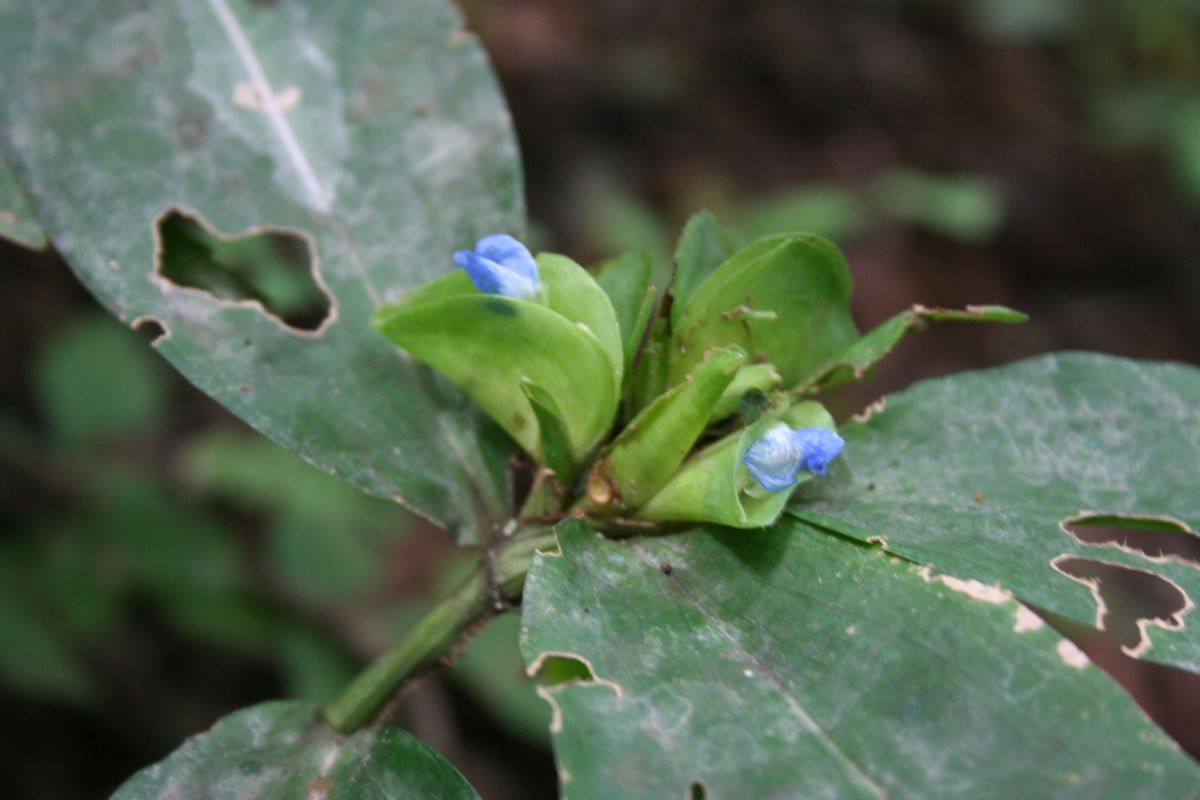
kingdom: Plantae
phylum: Tracheophyta
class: Liliopsida
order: Commelinales
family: Commelinaceae
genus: Commelina
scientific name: Commelina obliqua
